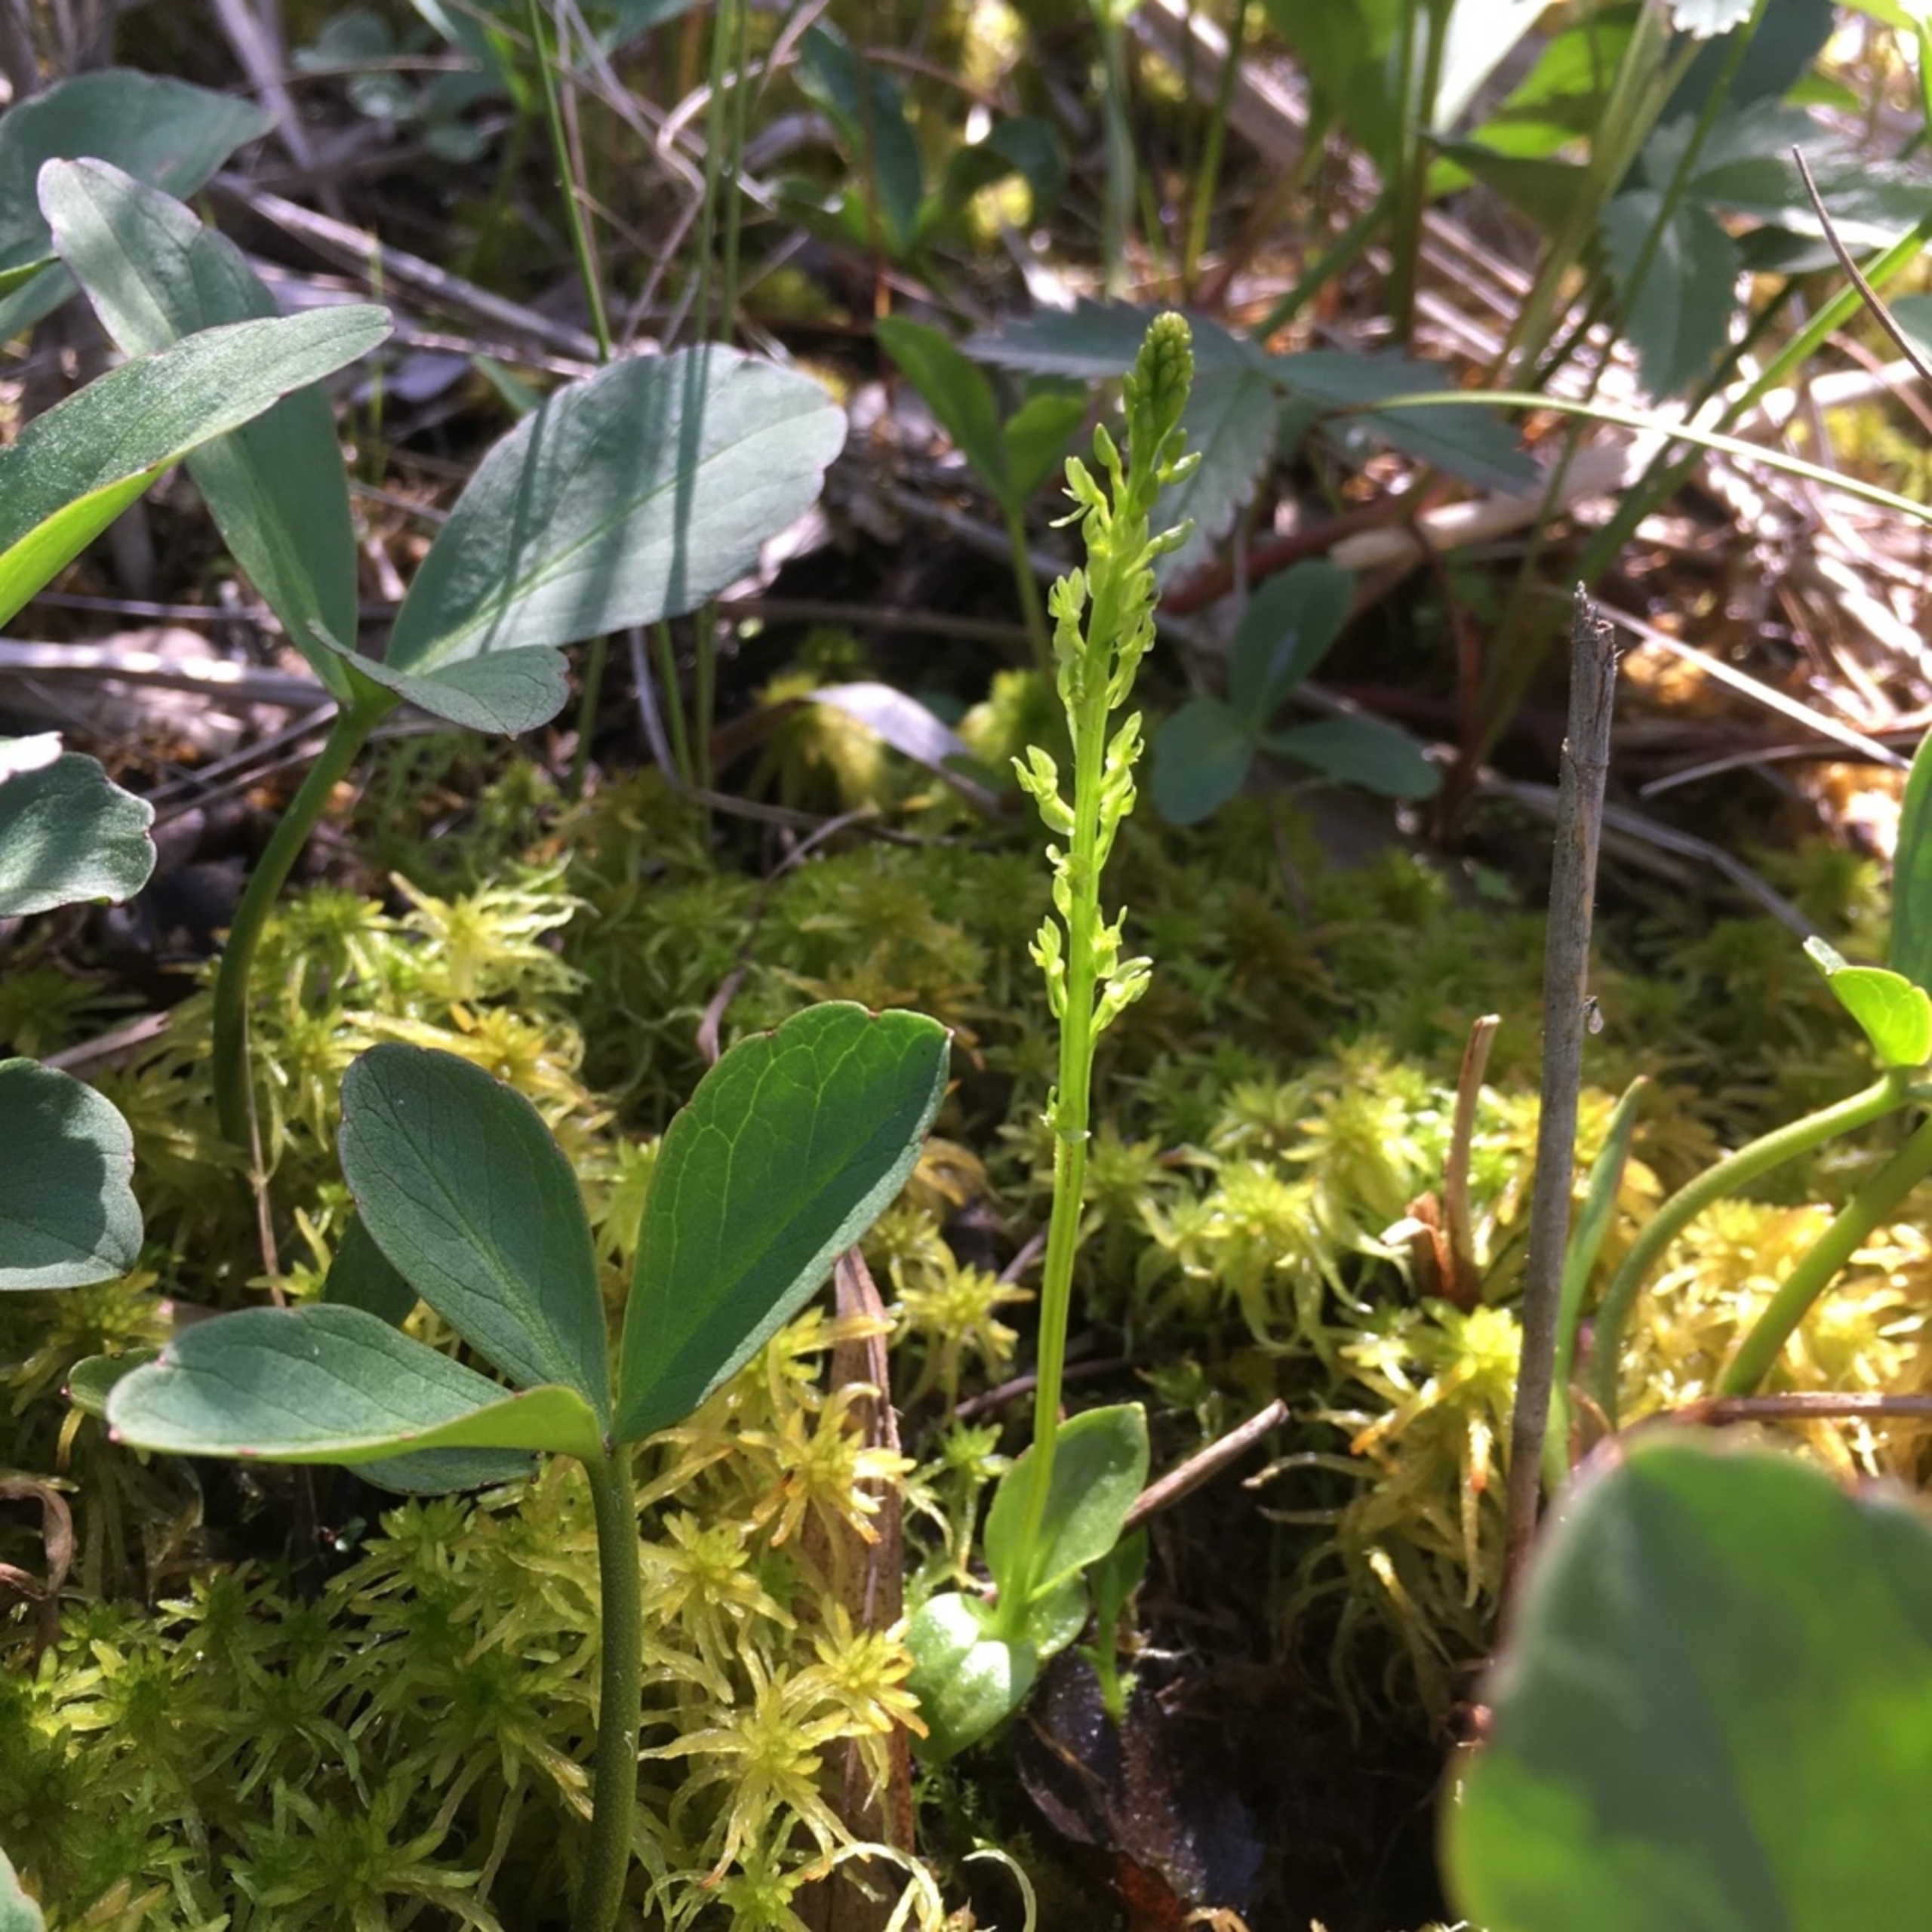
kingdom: Plantae
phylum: Tracheophyta
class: Liliopsida
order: Asparagales
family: Orchidaceae
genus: Hammarbya
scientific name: Hammarbya paludosa
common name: Hjertelæbe
